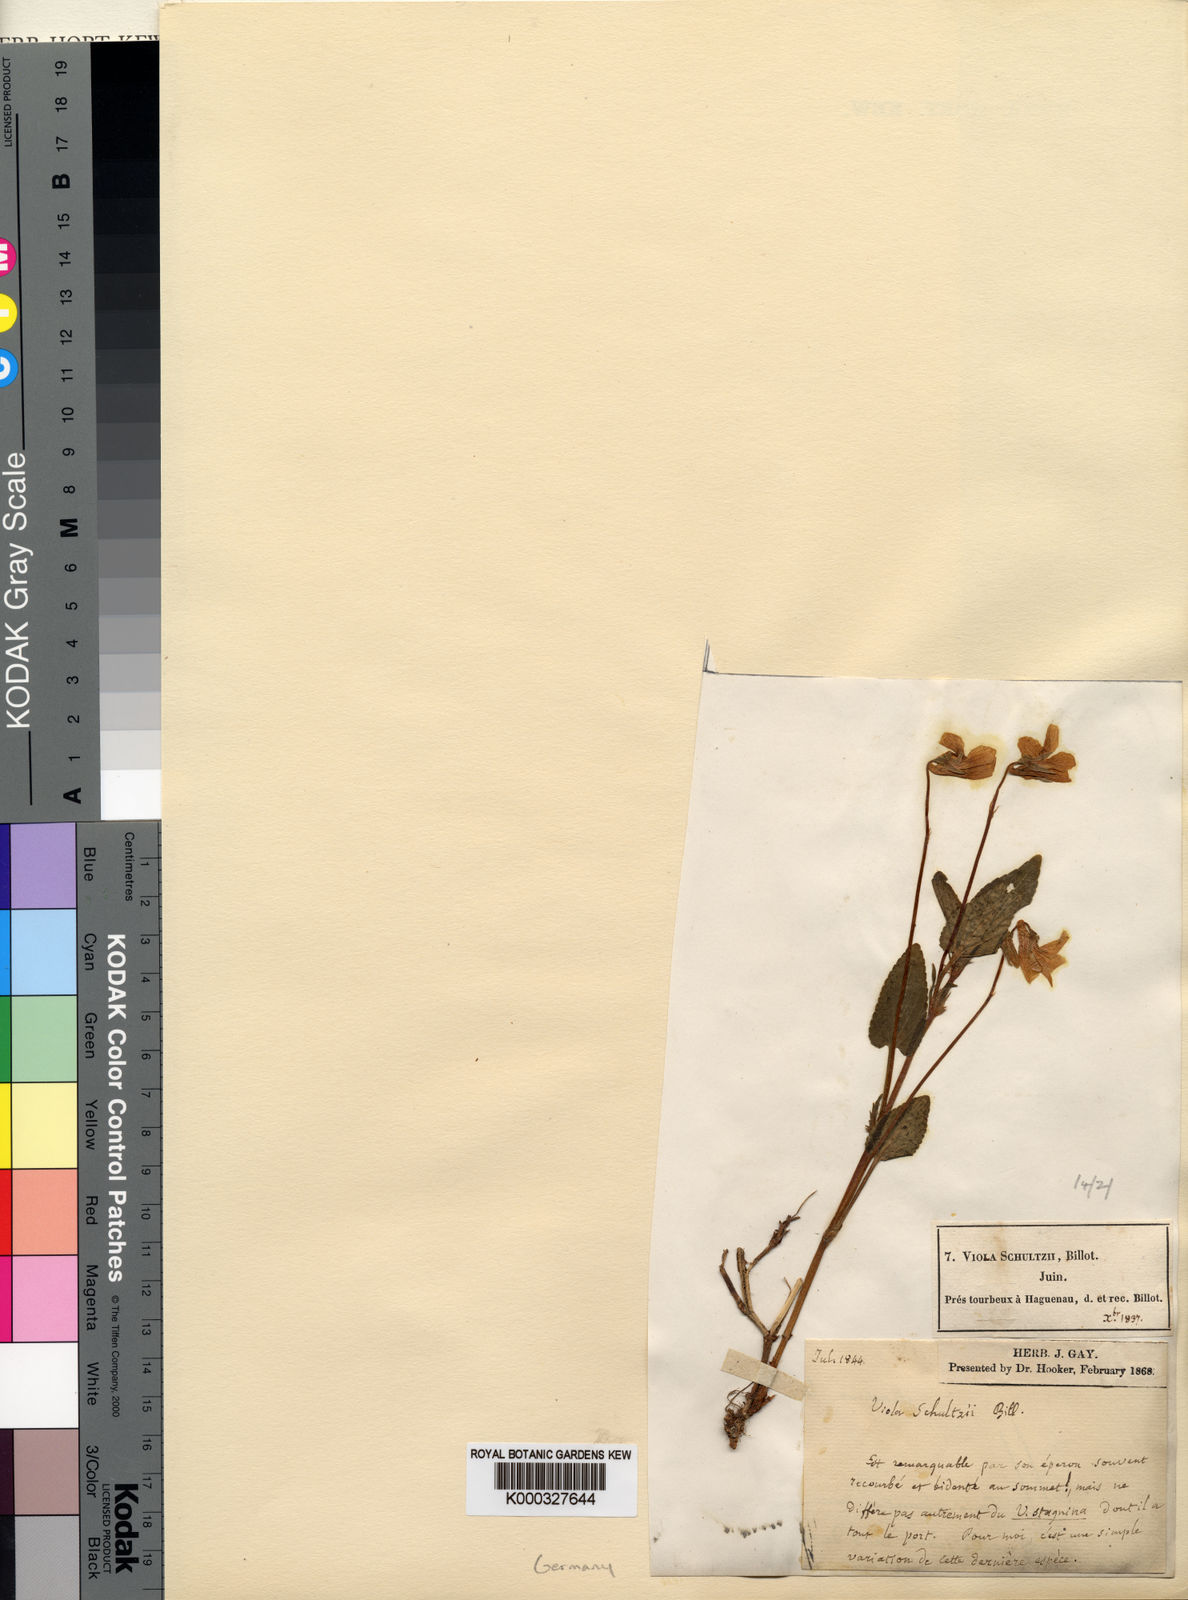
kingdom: Plantae
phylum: Tracheophyta
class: Magnoliopsida
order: Malpighiales
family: Violaceae
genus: Viola
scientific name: Viola canina
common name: Heath dog-violet
